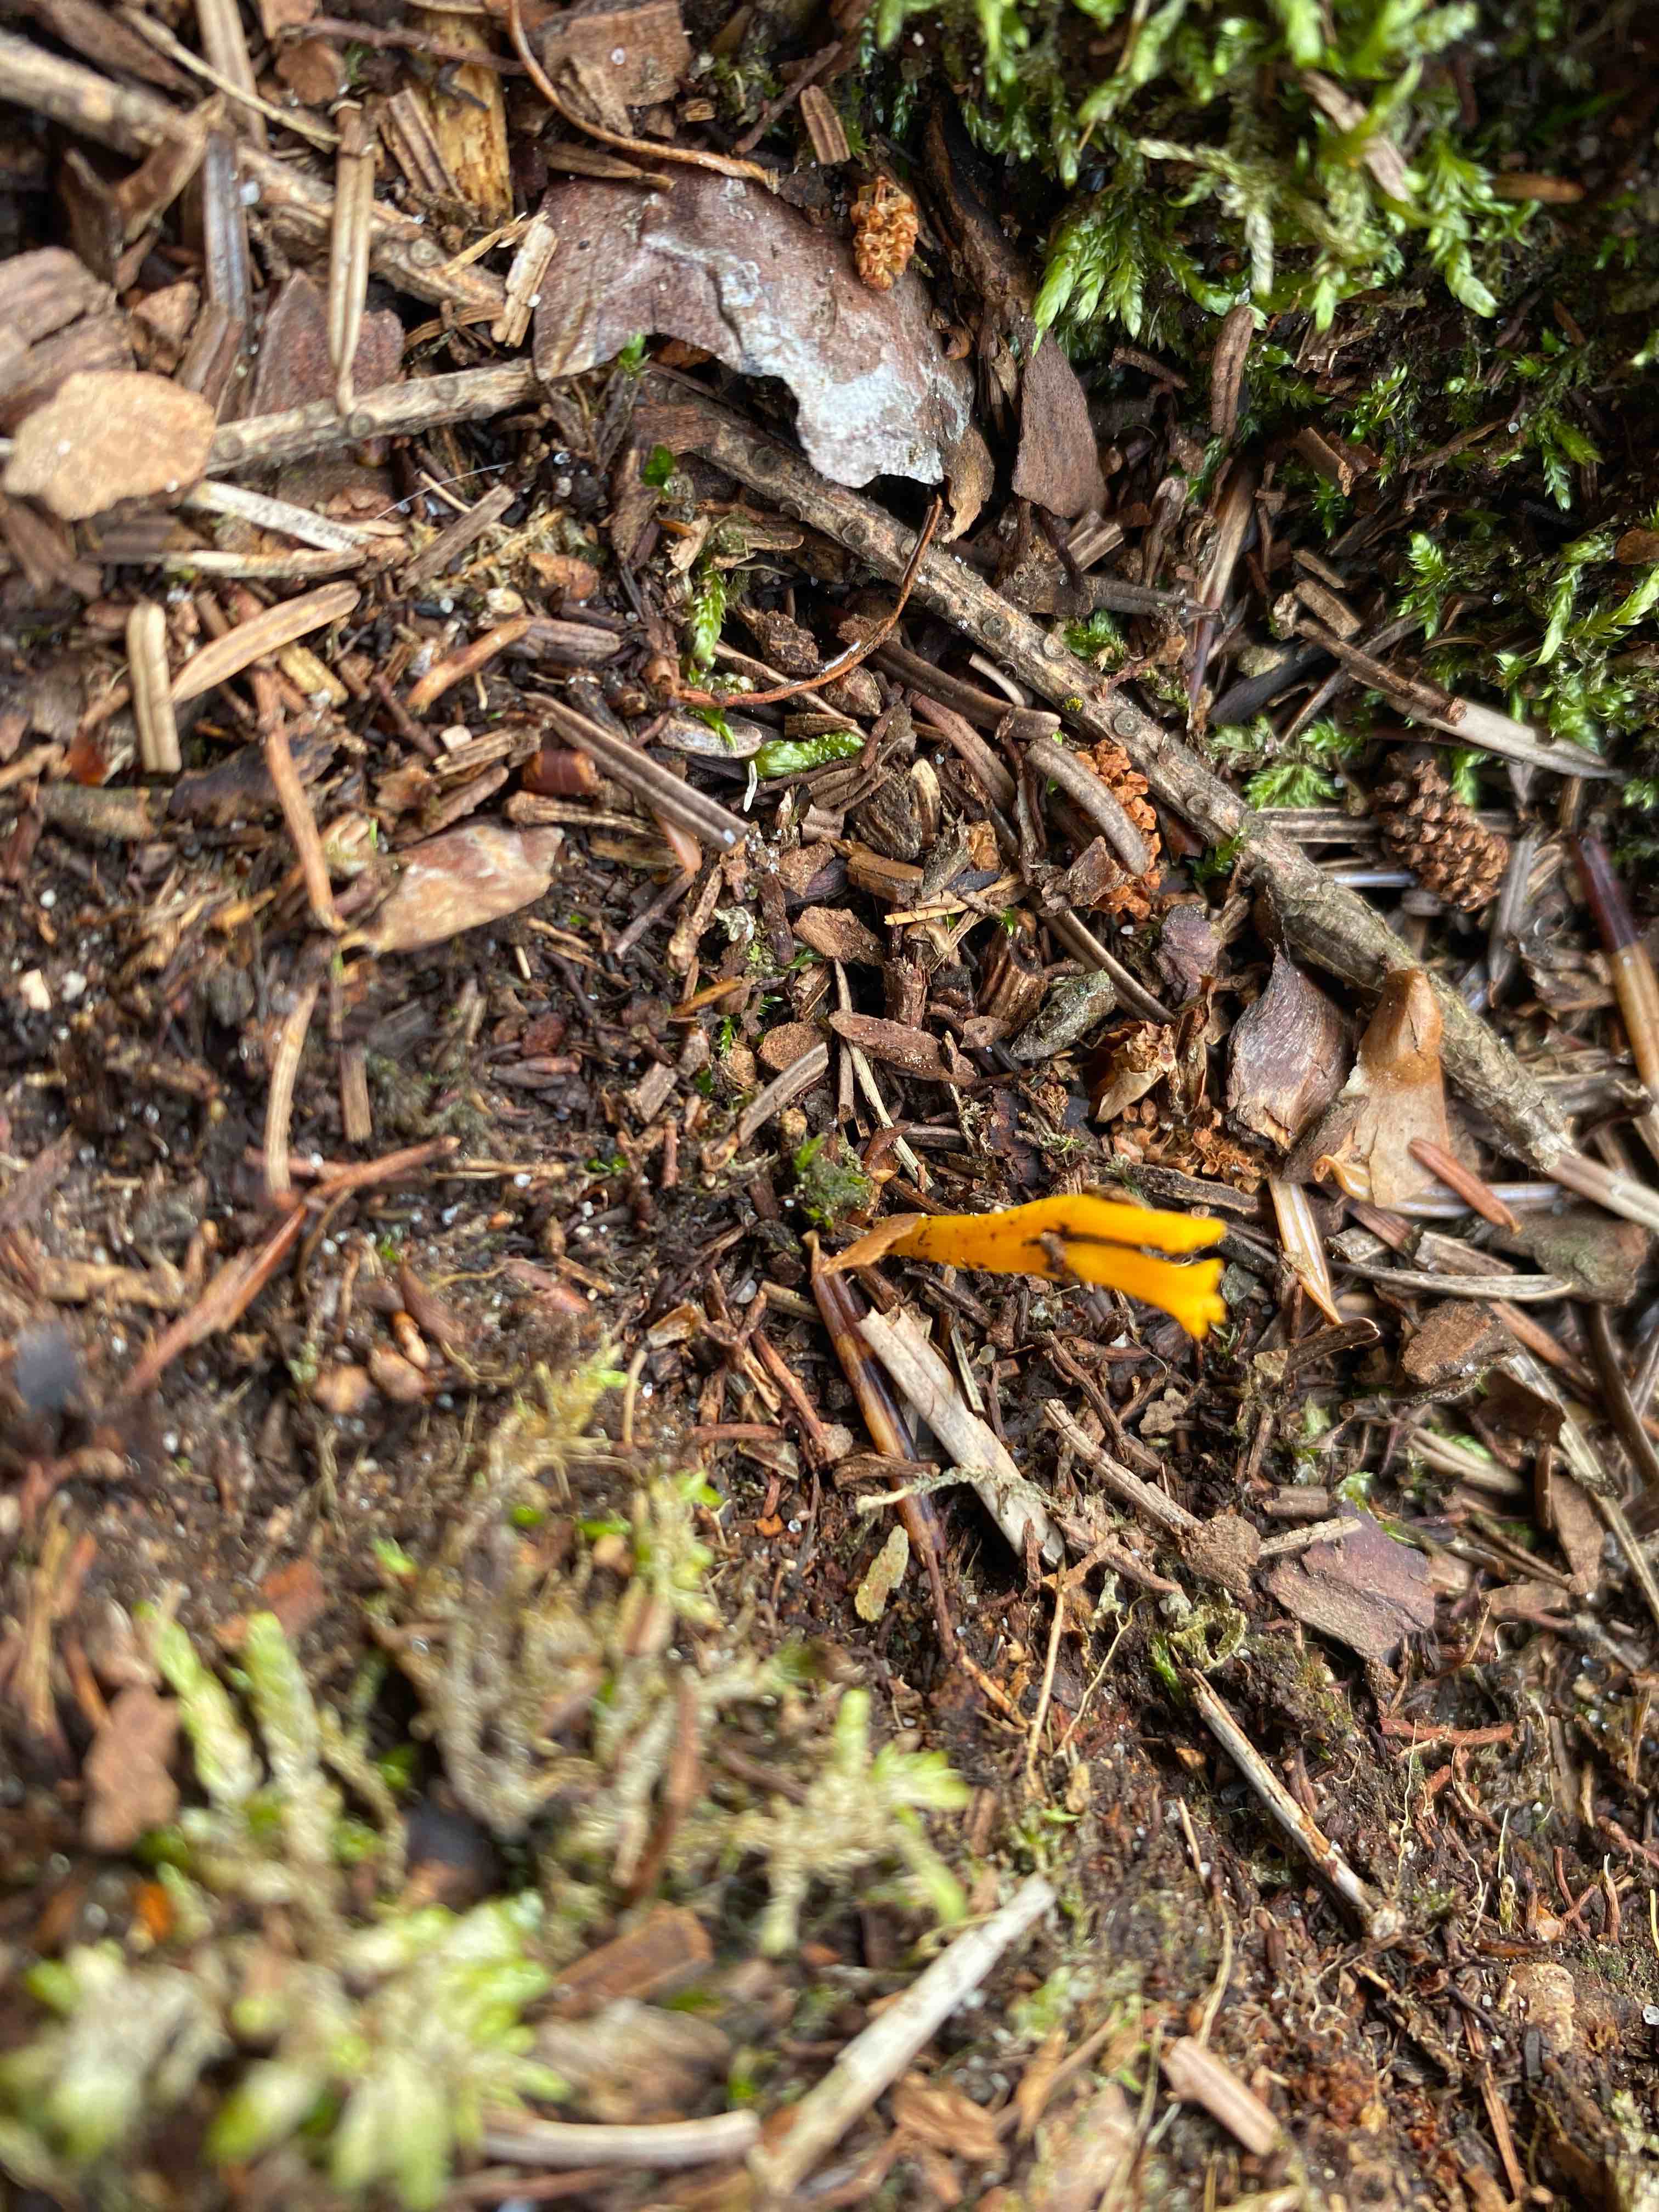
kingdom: Fungi
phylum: Basidiomycota
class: Dacrymycetes
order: Dacrymycetales
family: Dacrymycetaceae
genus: Calocera
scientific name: Calocera viscosa
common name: almindelig guldgaffel
